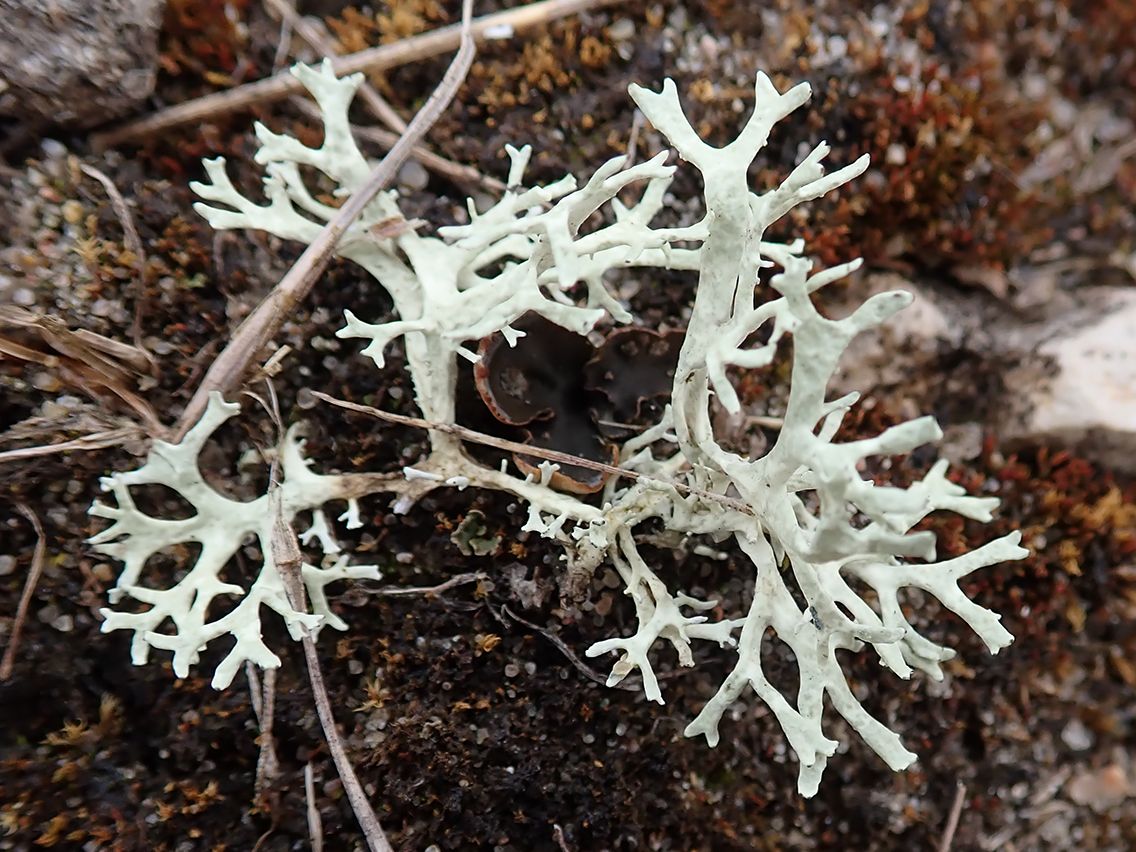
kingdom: Fungi
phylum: Ascomycota
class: Lecanoromycetes
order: Lecanorales
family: Parmeliaceae
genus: Evernia
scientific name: Evernia prunastri
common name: almindelig slåenlav
